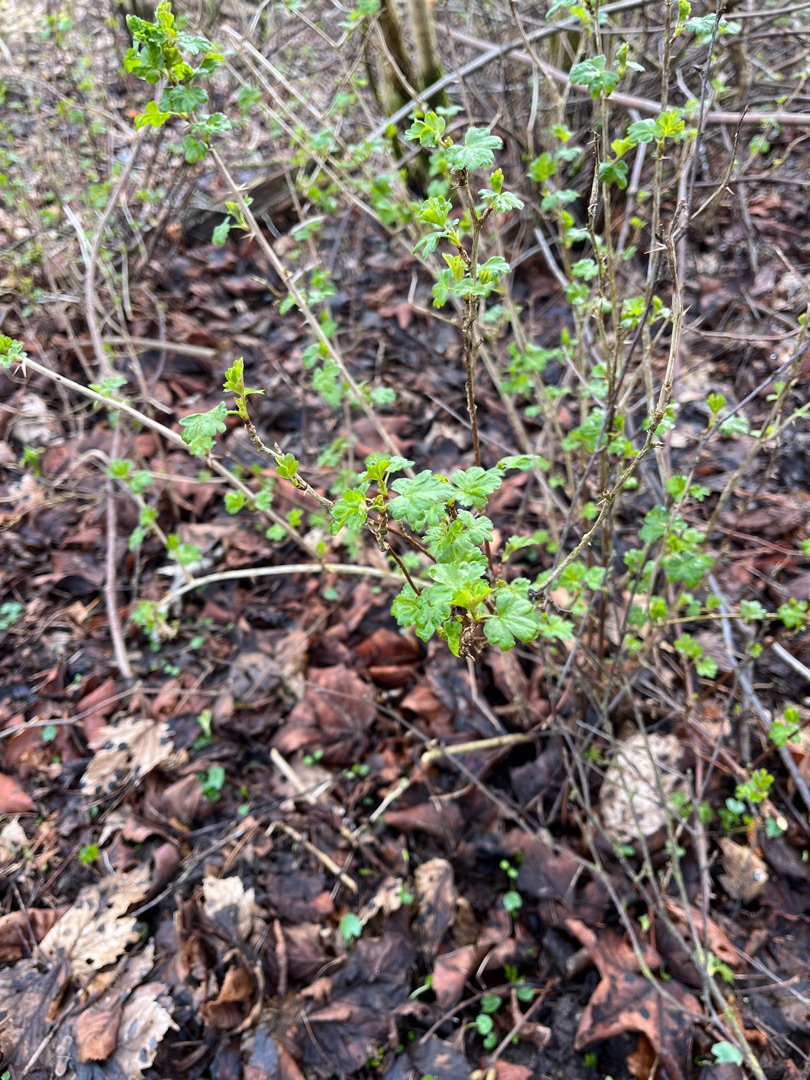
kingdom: Plantae
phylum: Tracheophyta
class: Magnoliopsida
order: Saxifragales
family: Grossulariaceae
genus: Ribes
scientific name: Ribes uva-crispa
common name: Stikkelsbær
